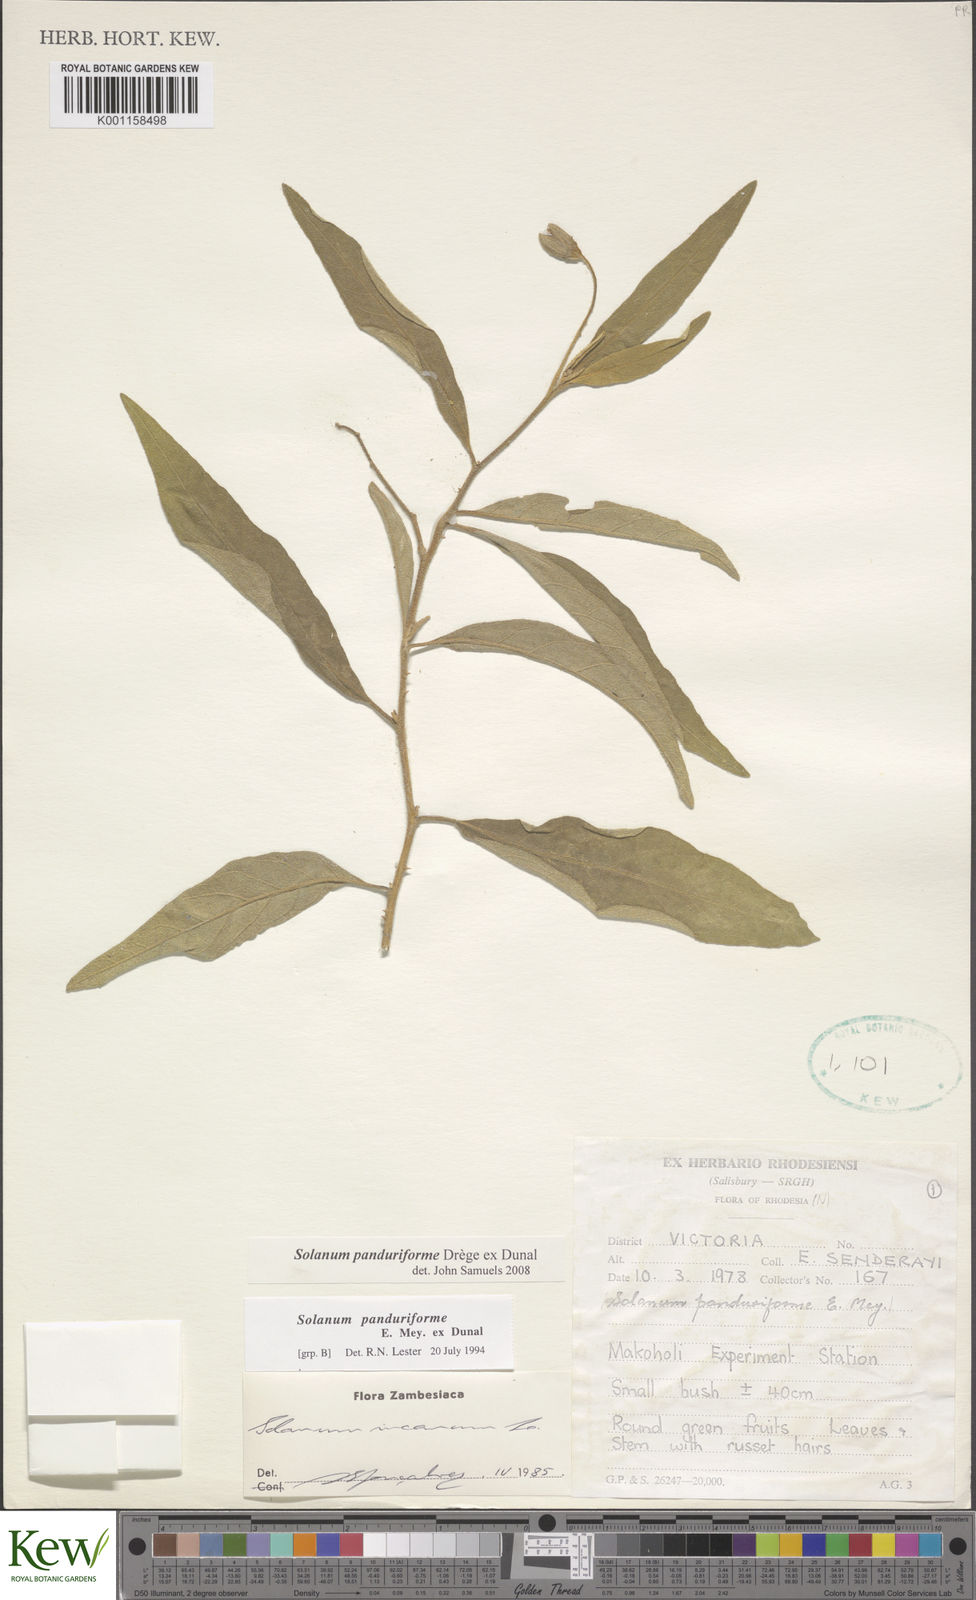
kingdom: Plantae
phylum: Tracheophyta
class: Magnoliopsida
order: Solanales
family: Solanaceae
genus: Solanum
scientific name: Solanum campylacanthum
